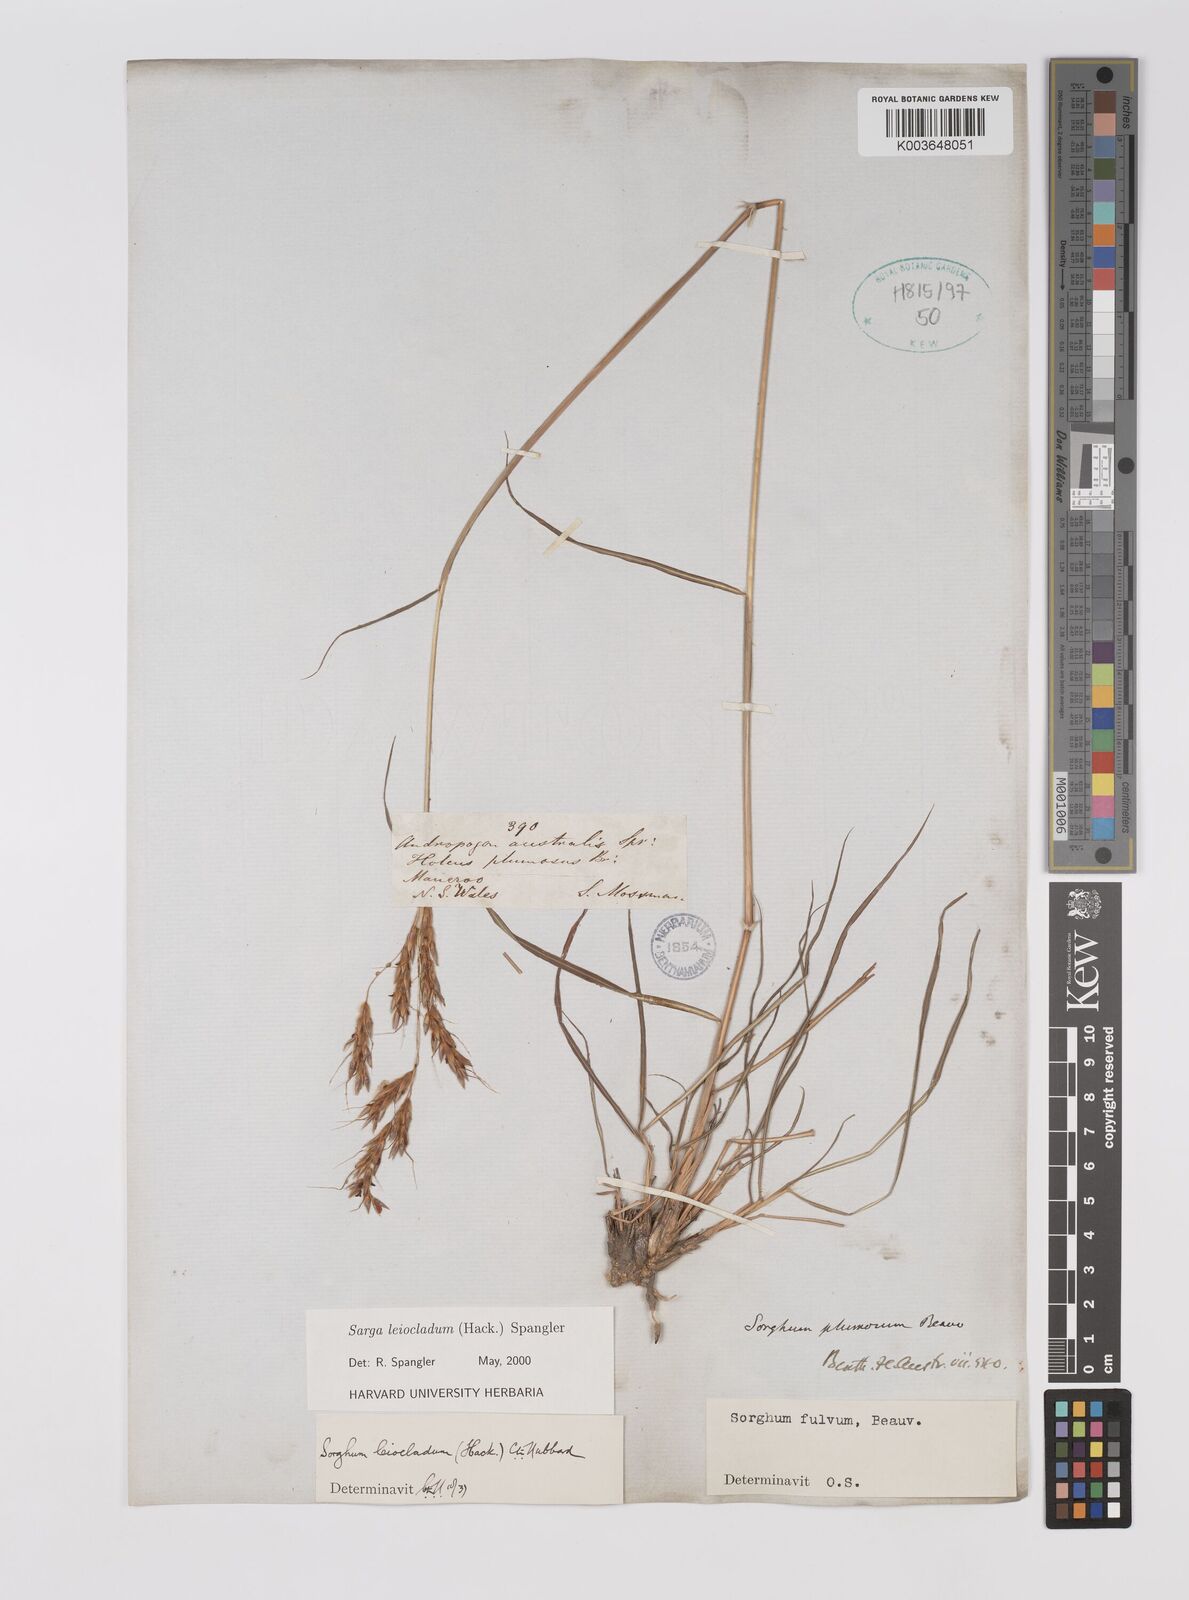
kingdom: Plantae
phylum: Tracheophyta
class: Liliopsida
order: Poales
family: Poaceae
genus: Sarga
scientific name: Sarga leioclada
